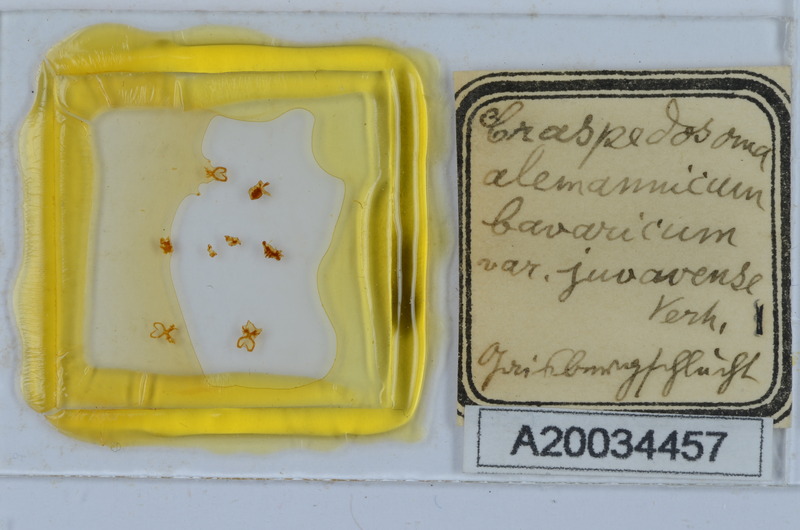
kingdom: Animalia
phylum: Arthropoda
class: Diplopoda
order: Chordeumatida
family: Craspedosomatidae
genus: Craspedosoma
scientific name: Craspedosoma rawlinsii
